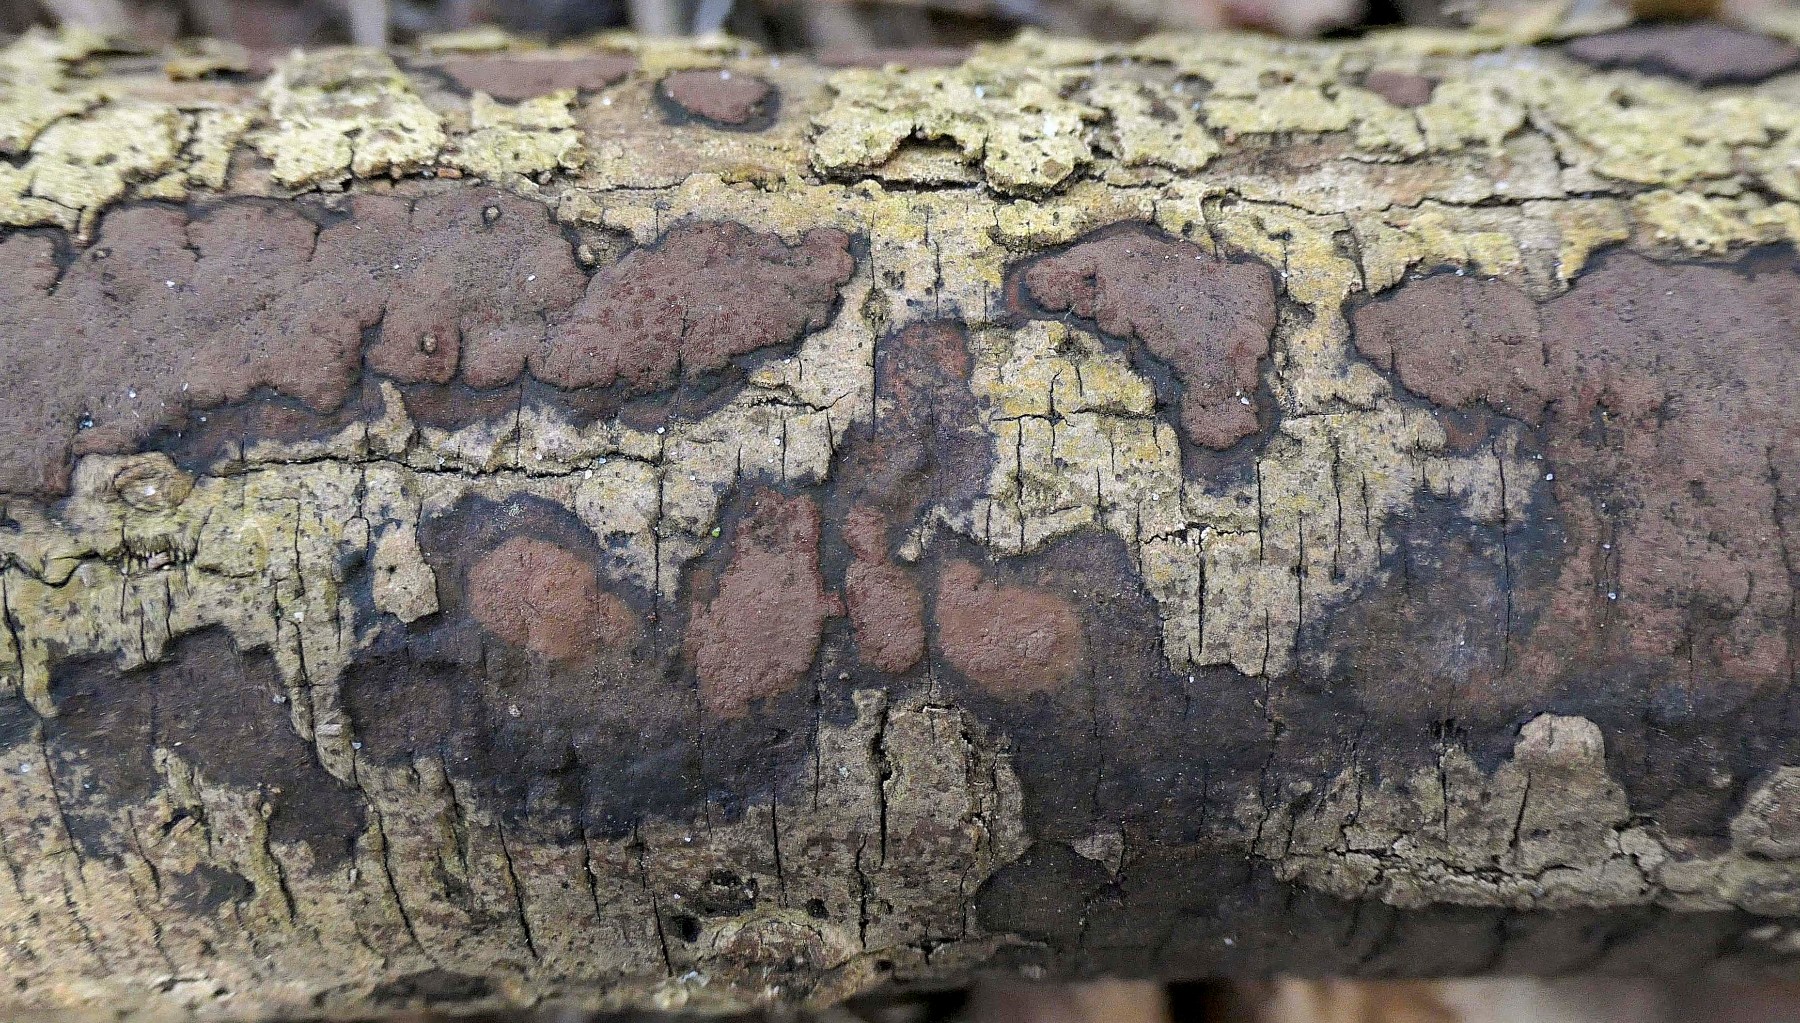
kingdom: Fungi
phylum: Ascomycota
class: Sordariomycetes
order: Xylariales
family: Hypoxylaceae
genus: Hypoxylon
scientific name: Hypoxylon petriniae
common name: nedsænket kulbær
